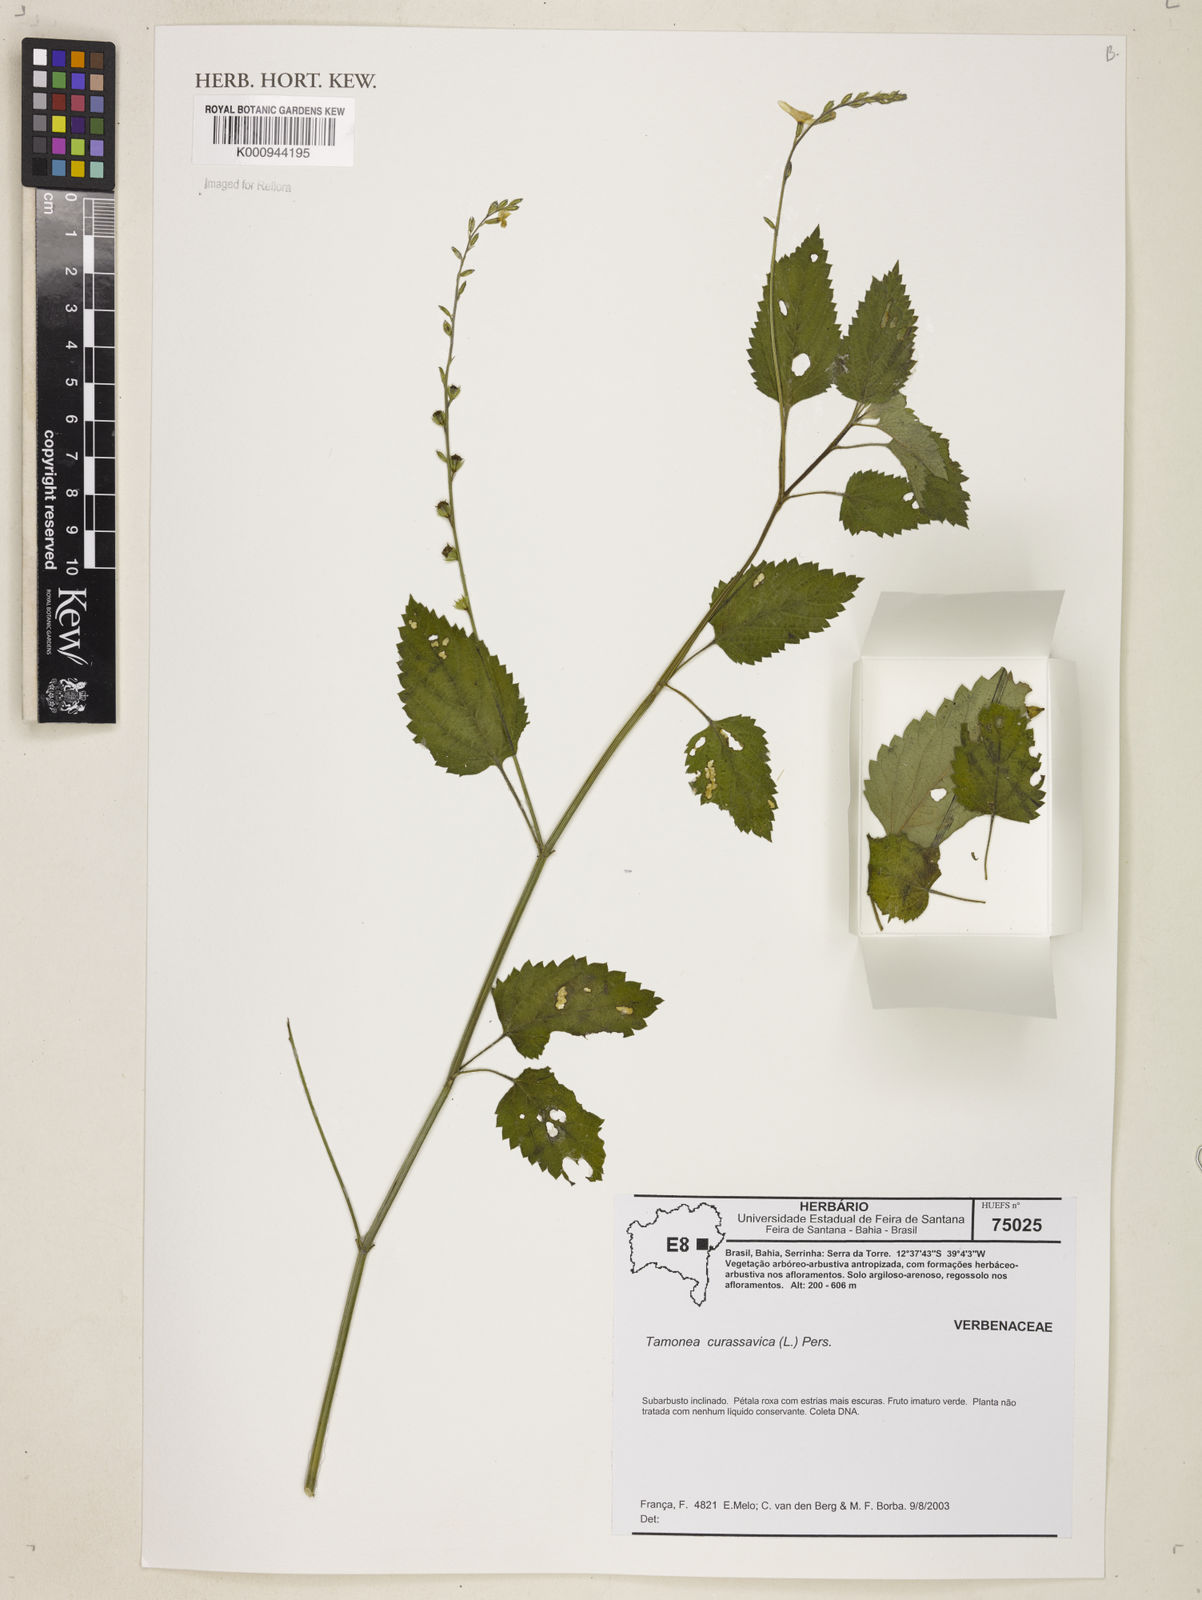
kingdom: Plantae
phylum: Tracheophyta
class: Magnoliopsida
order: Lamiales
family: Verbenaceae
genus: Tamonea
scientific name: Tamonea curassavica
